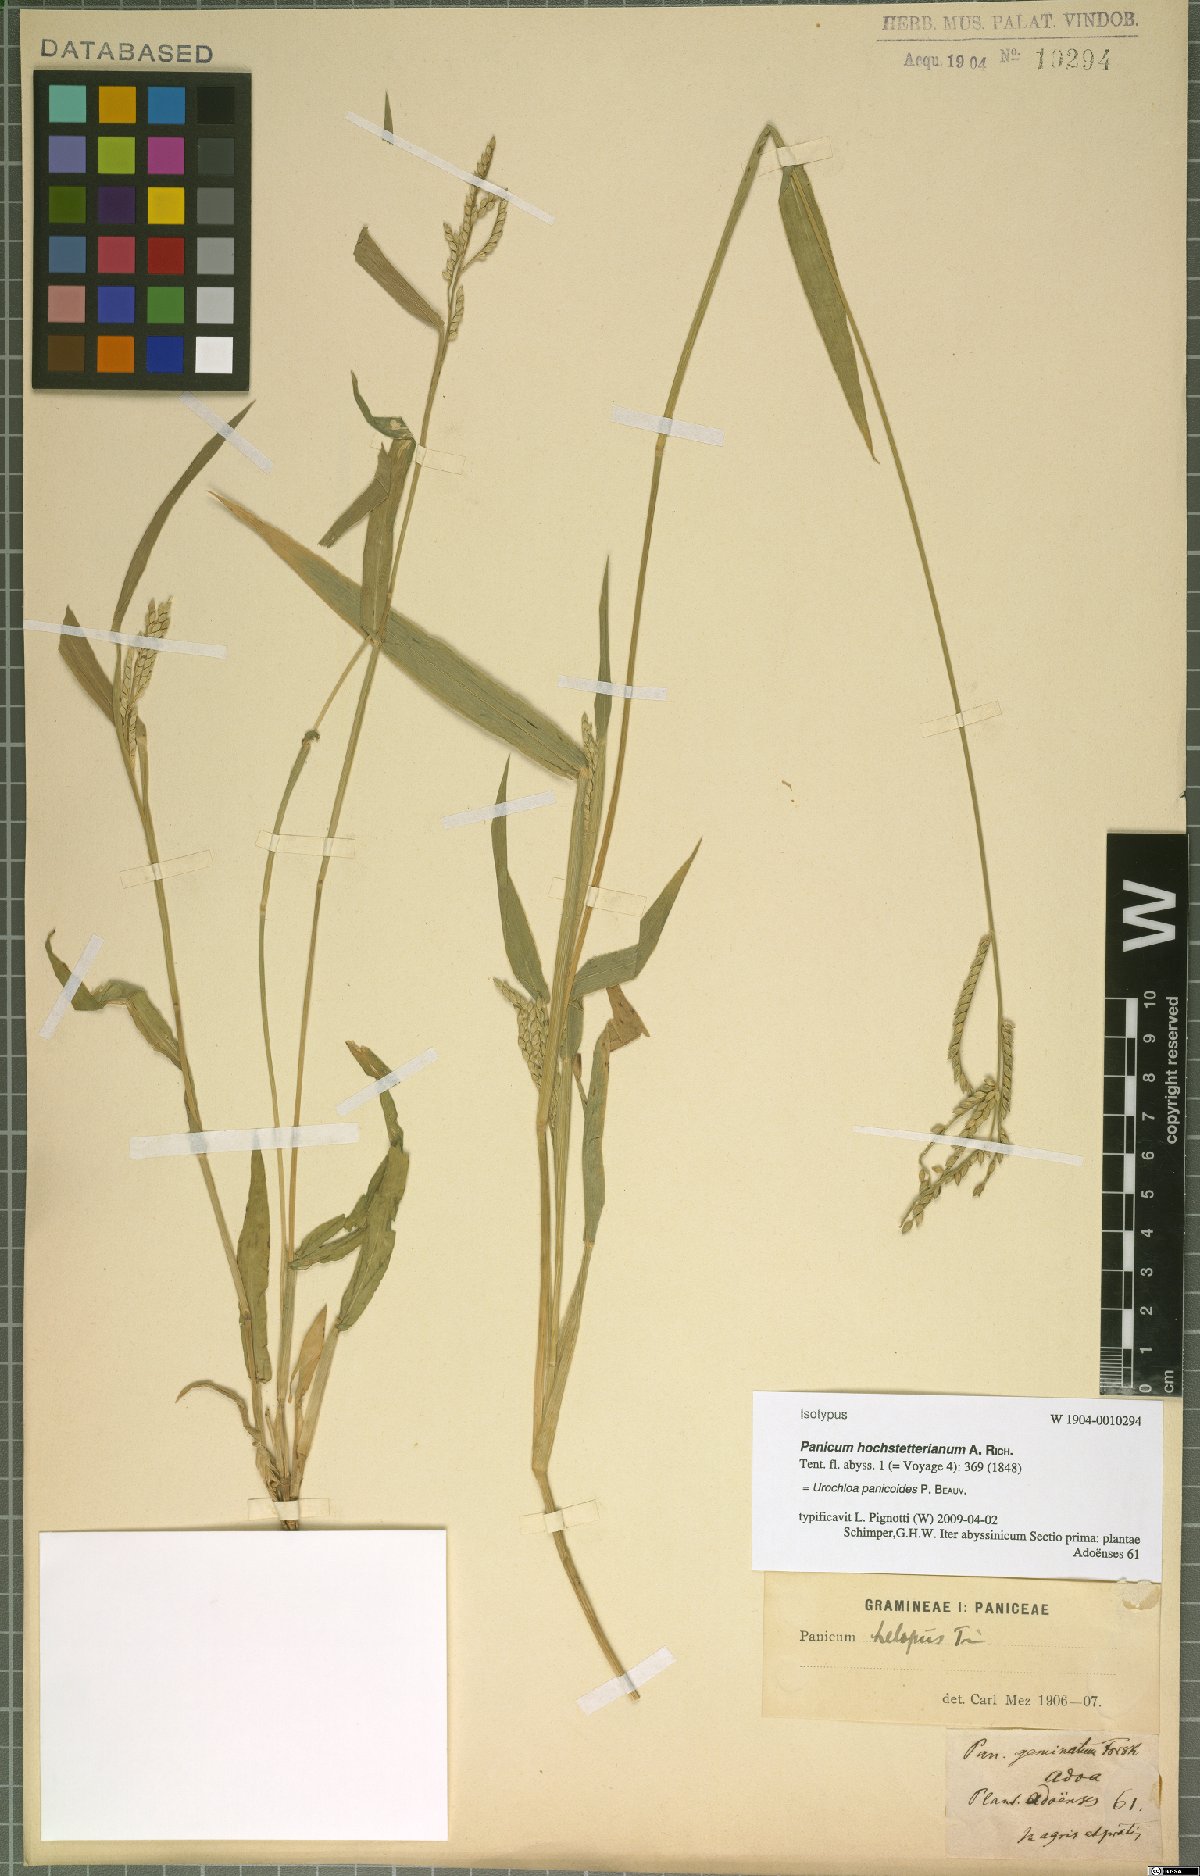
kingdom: Plantae
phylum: Tracheophyta
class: Liliopsida
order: Poales
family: Poaceae
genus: Urochloa
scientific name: Urochloa panicoides
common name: Sharp-flowered signal-grass
